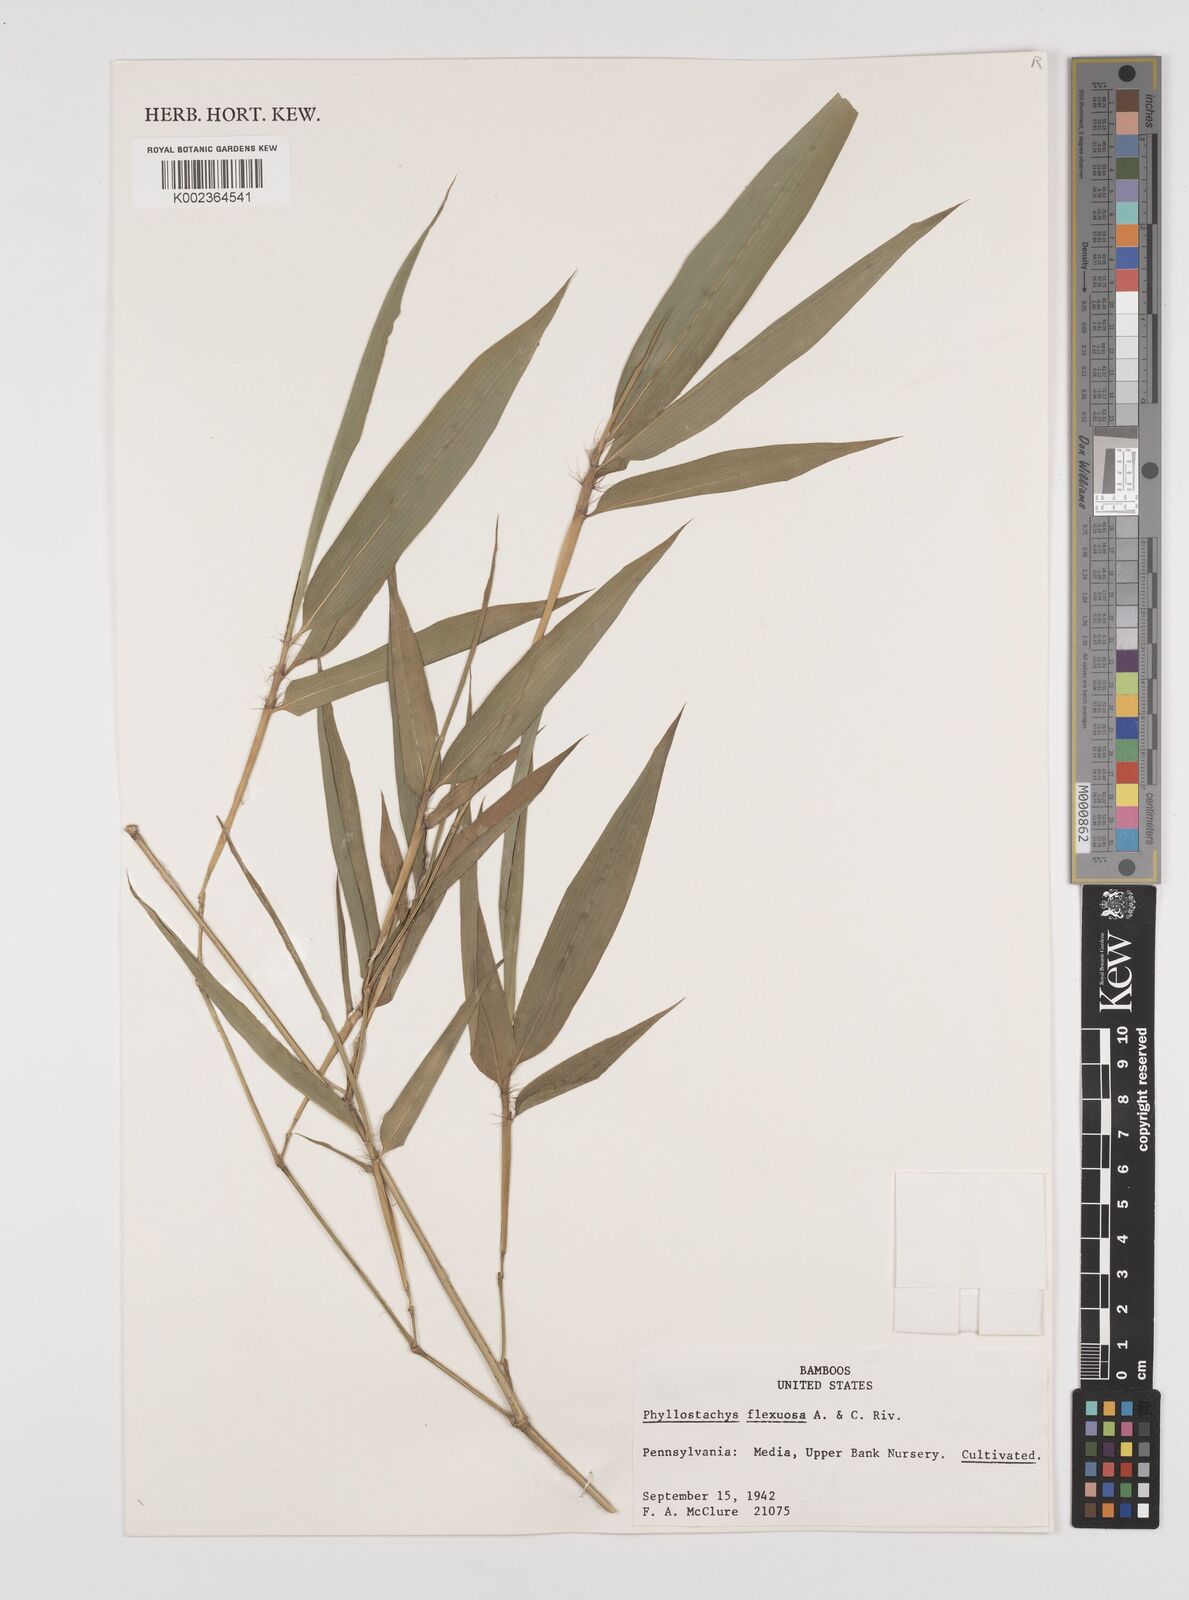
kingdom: Plantae
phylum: Tracheophyta
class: Liliopsida
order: Poales
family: Poaceae
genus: Phyllostachys
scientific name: Phyllostachys flexuosa
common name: Drooping timber bamboo
